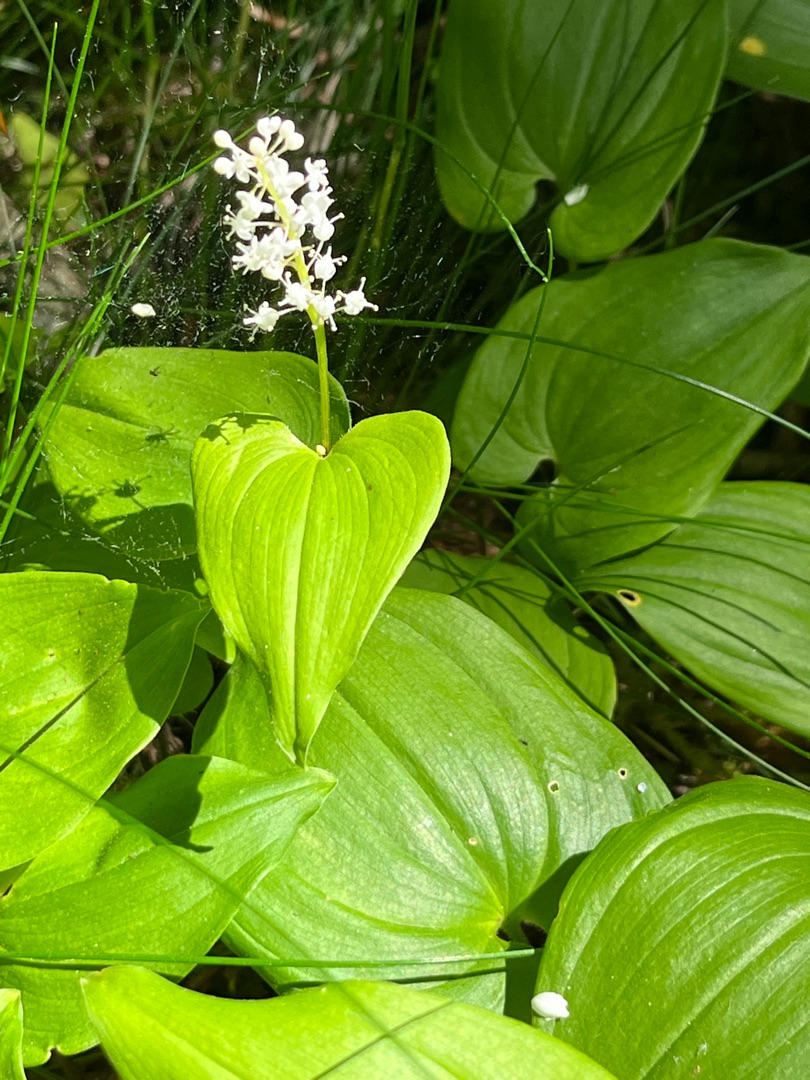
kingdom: Plantae
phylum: Tracheophyta
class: Liliopsida
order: Asparagales
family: Asparagaceae
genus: Maianthemum
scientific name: Maianthemum bifolium
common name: Majblomst
